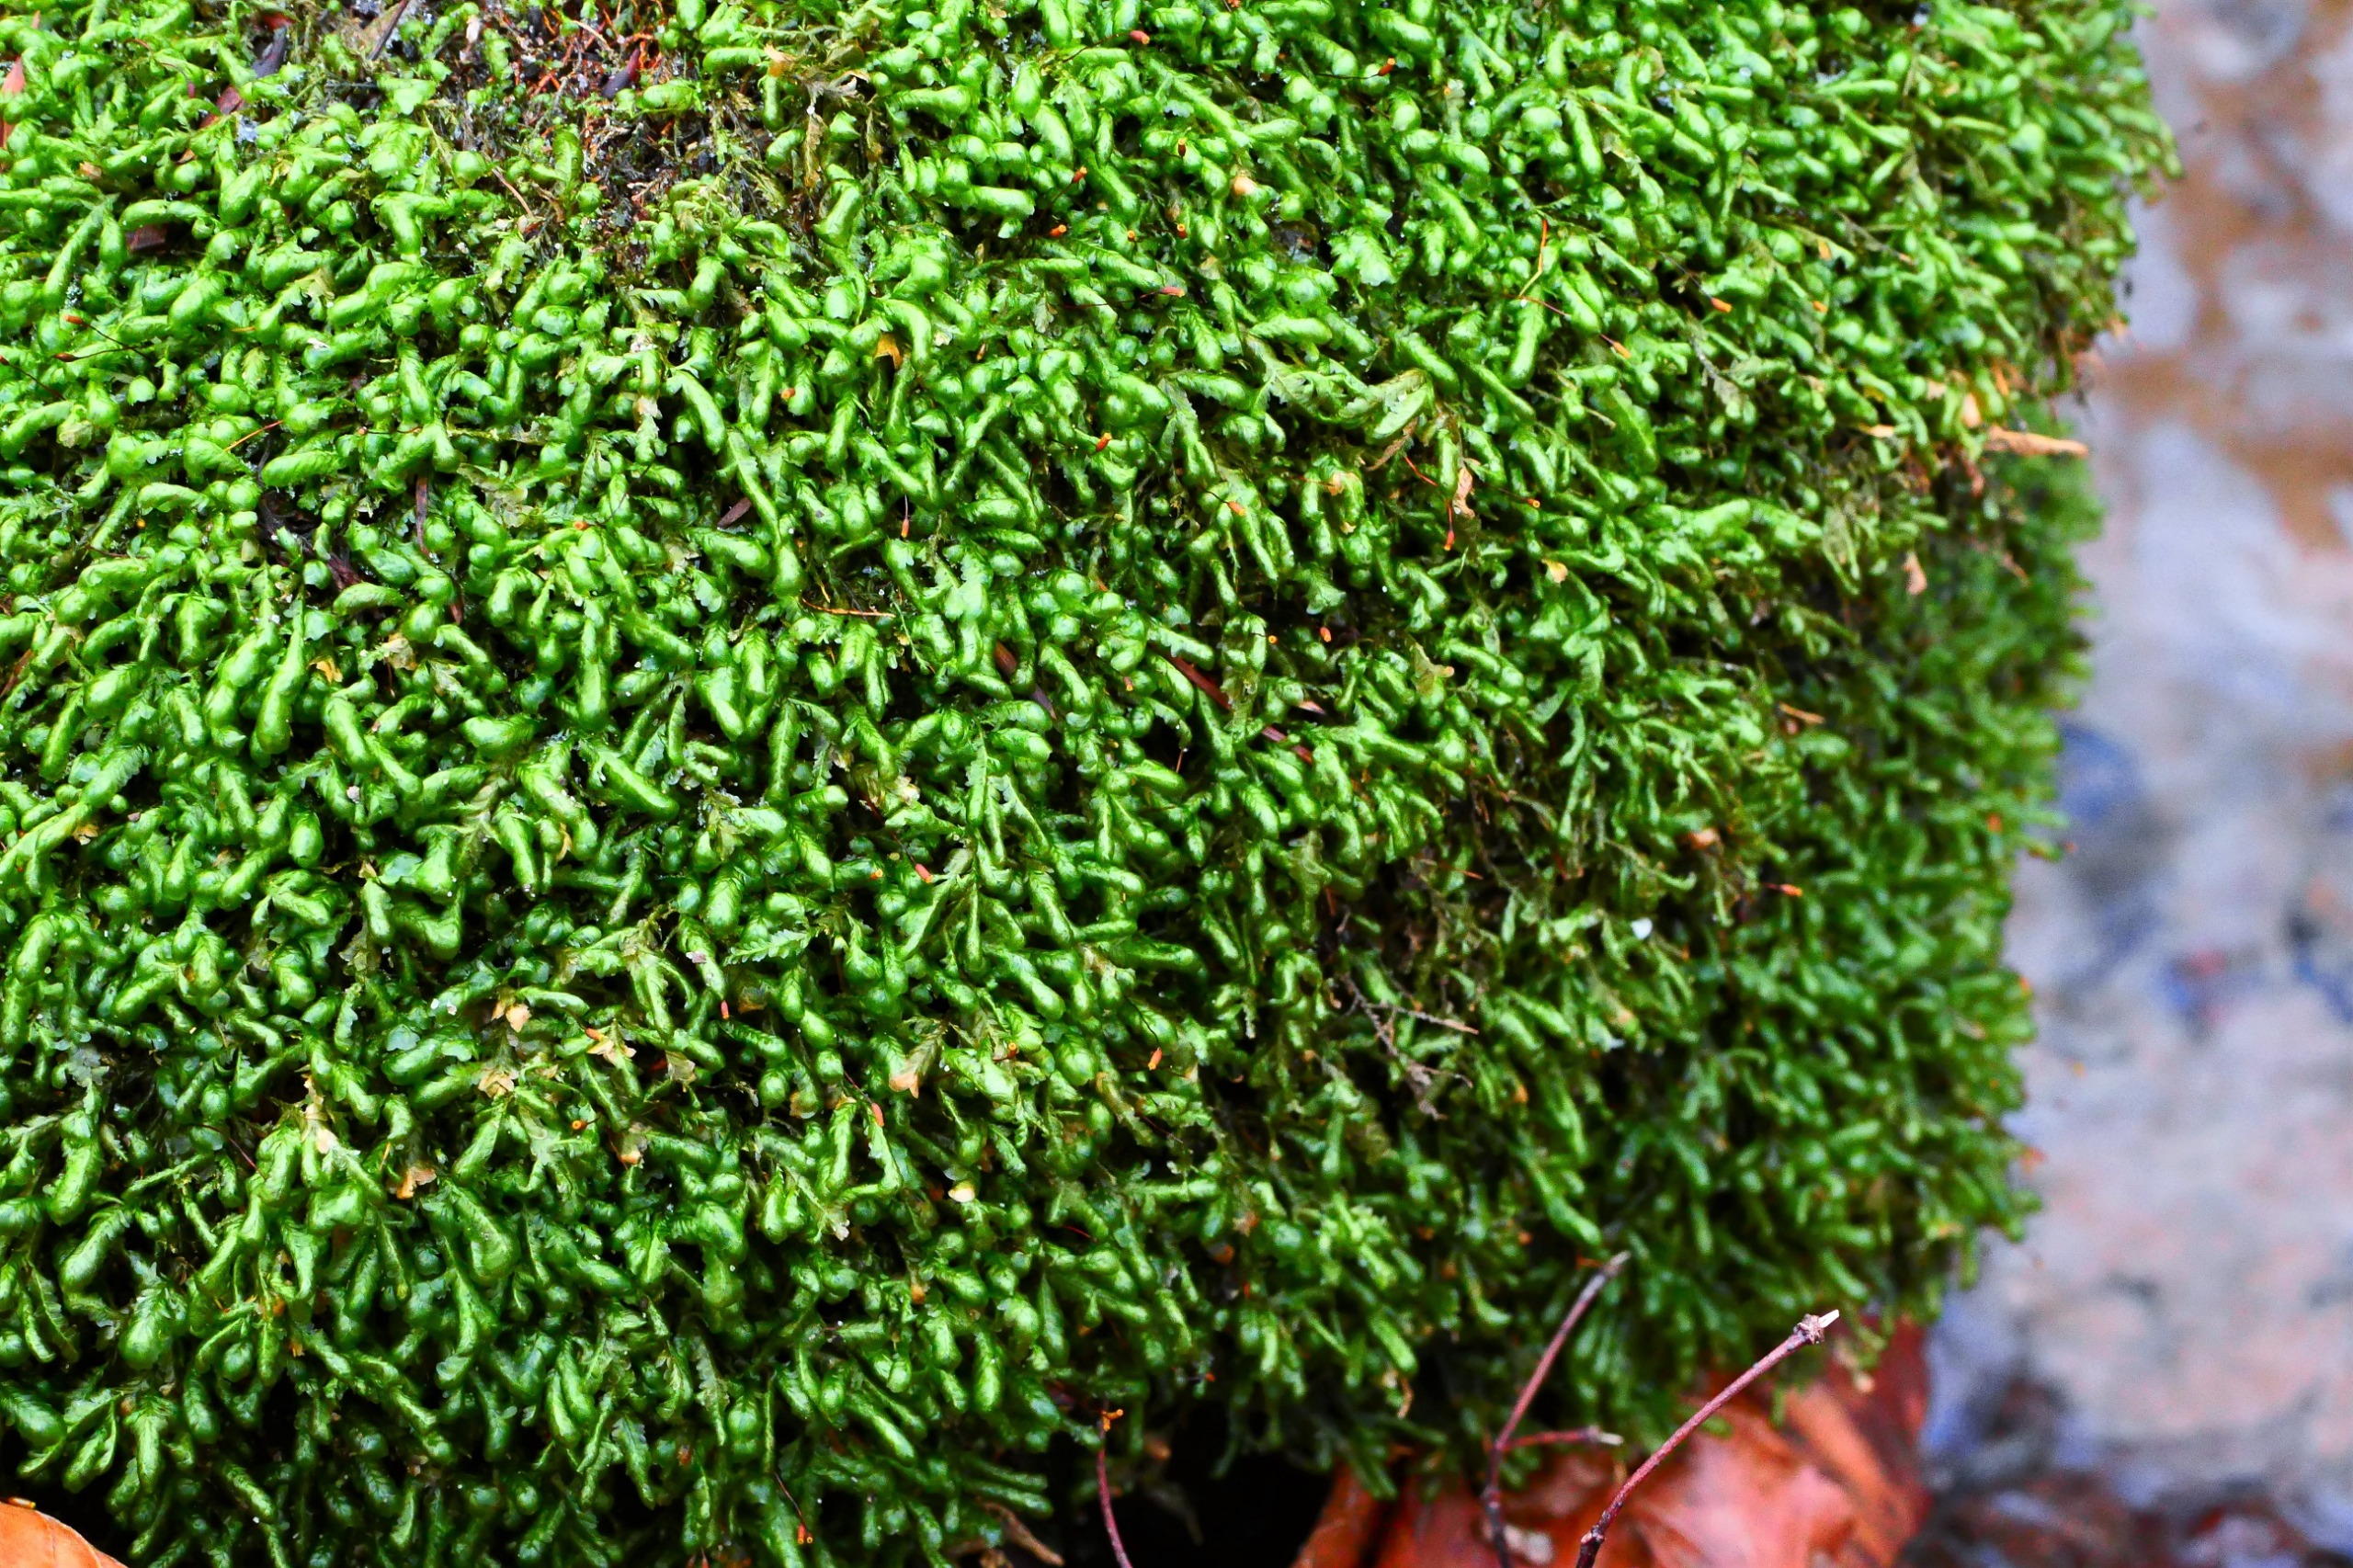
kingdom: Plantae
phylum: Bryophyta
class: Bryopsida
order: Hypnales
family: Neckeraceae
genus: Homalia
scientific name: Homalia trichomanoides
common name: Skov-tungemos
